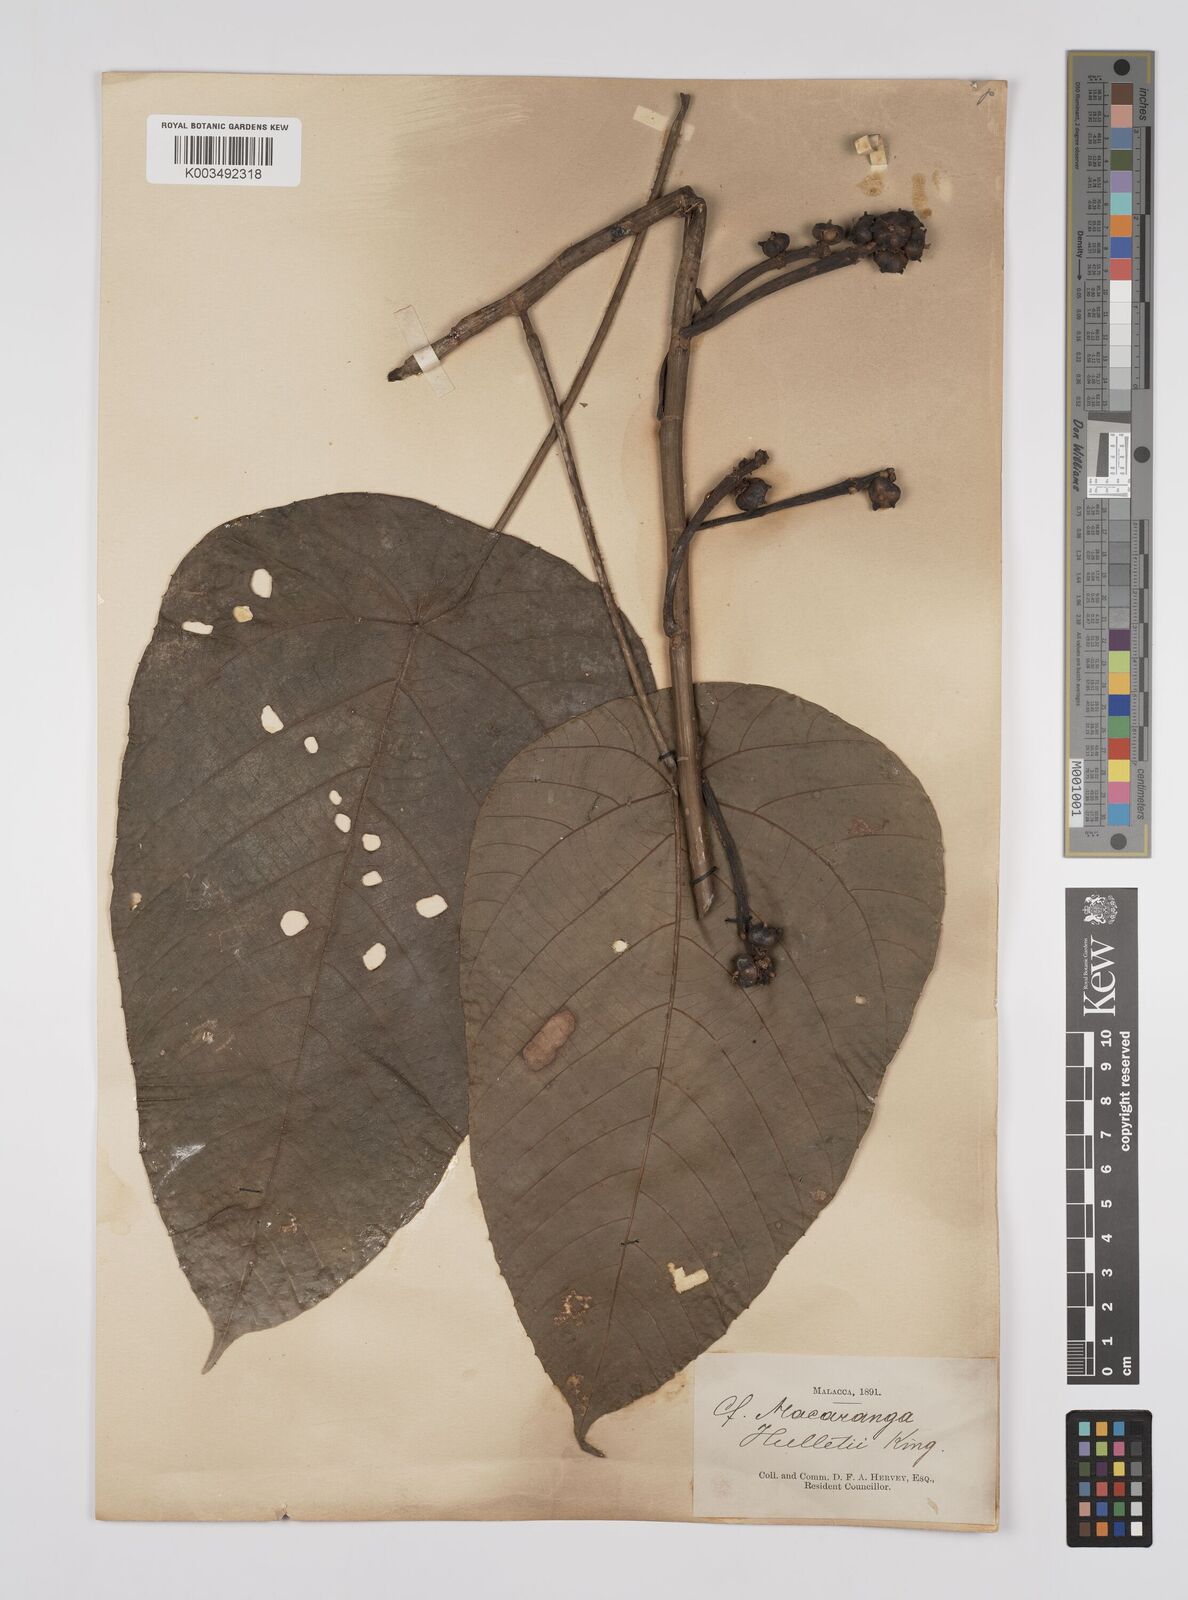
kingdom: Plantae
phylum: Tracheophyta
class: Magnoliopsida
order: Malpighiales
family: Euphorbiaceae
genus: Macaranga
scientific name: Macaranga hullettii
